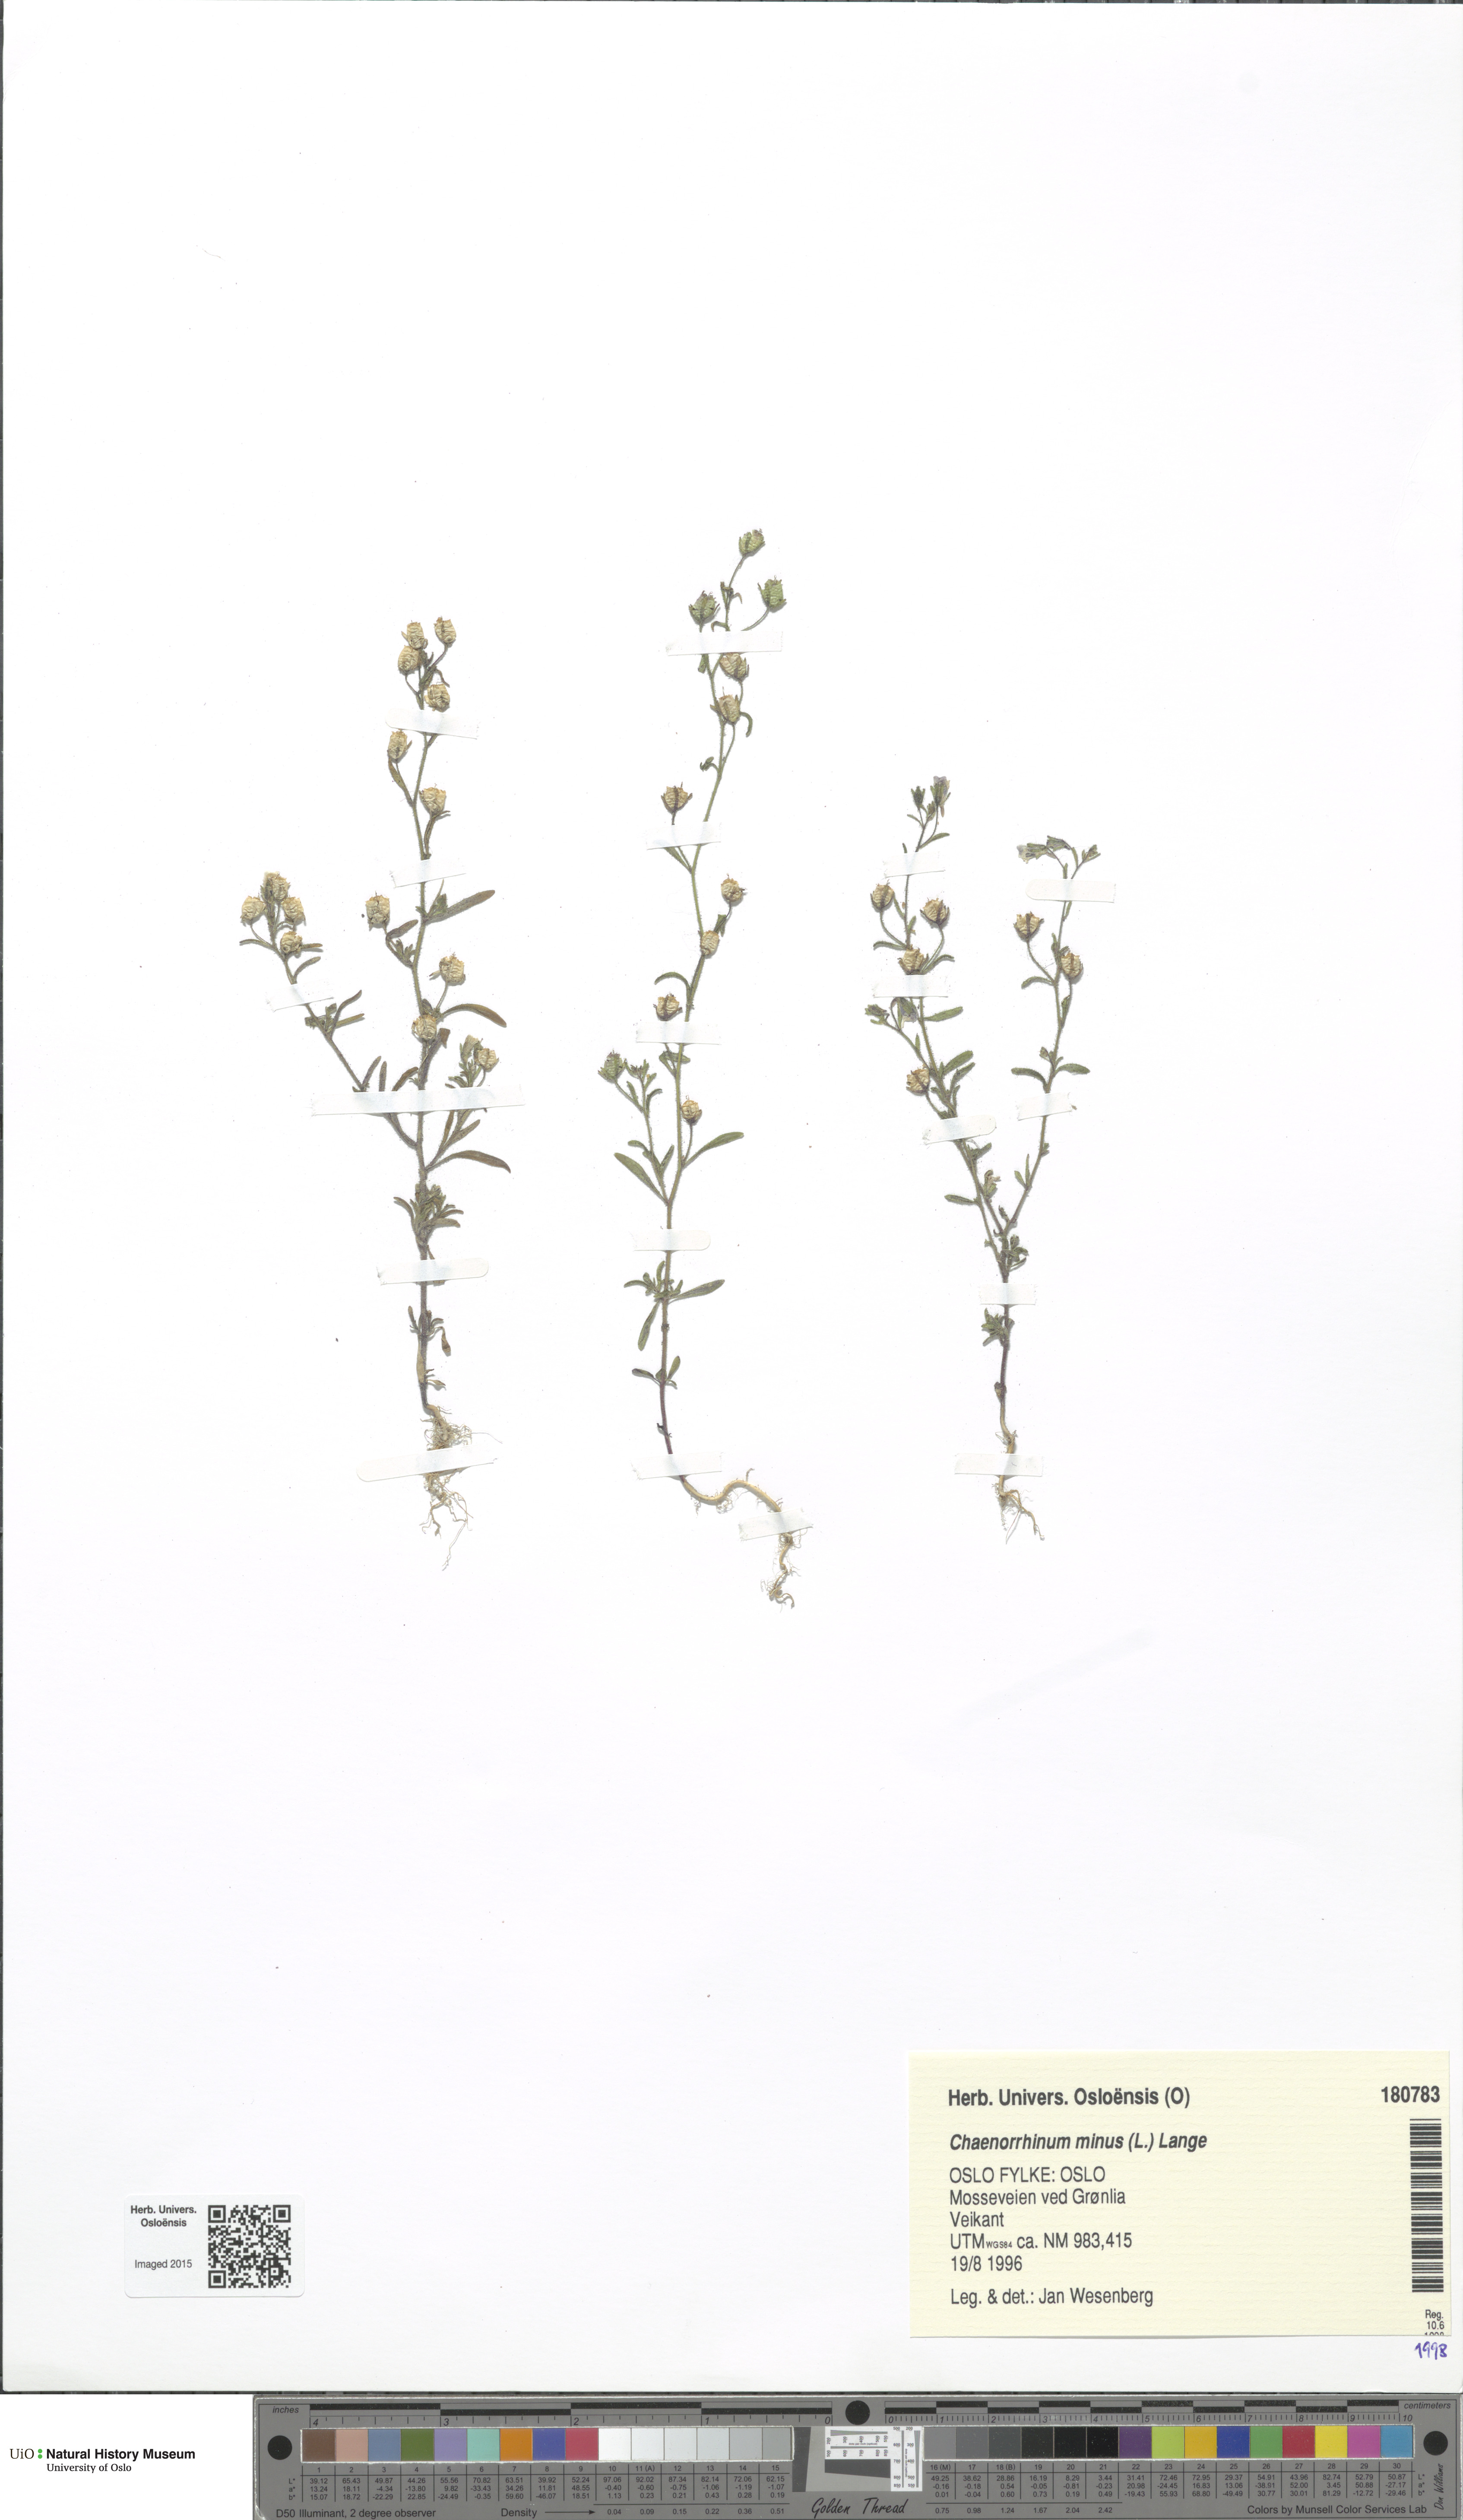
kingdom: Plantae
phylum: Tracheophyta
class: Magnoliopsida
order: Lamiales
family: Plantaginaceae
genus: Chaenorhinum
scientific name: Chaenorhinum minus
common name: Dwarf snapdragon
